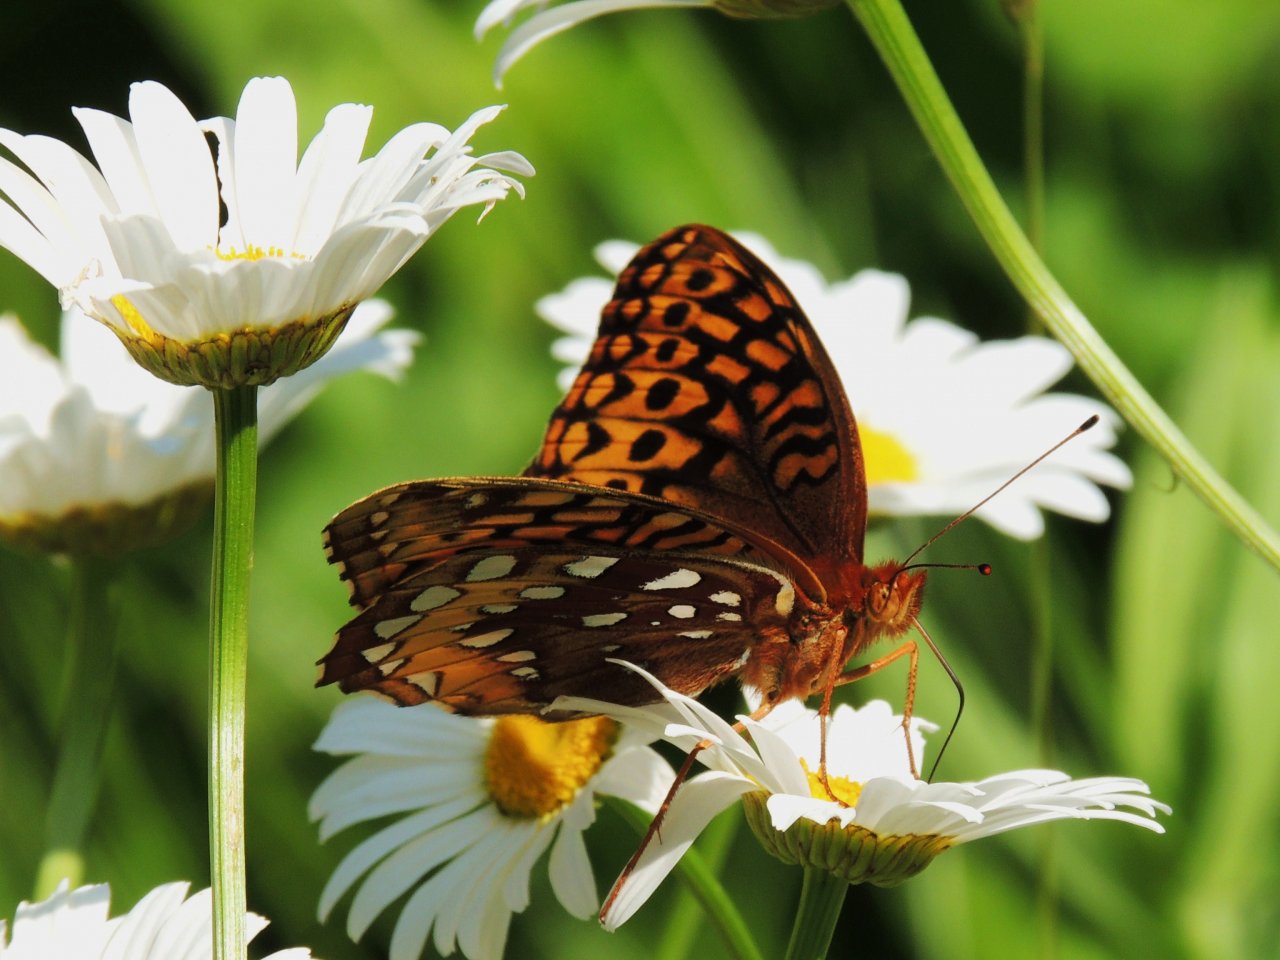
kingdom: Animalia
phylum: Arthropoda
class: Insecta
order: Lepidoptera
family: Nymphalidae
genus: Speyeria
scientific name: Speyeria cybele
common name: Great Spangled Fritillary
